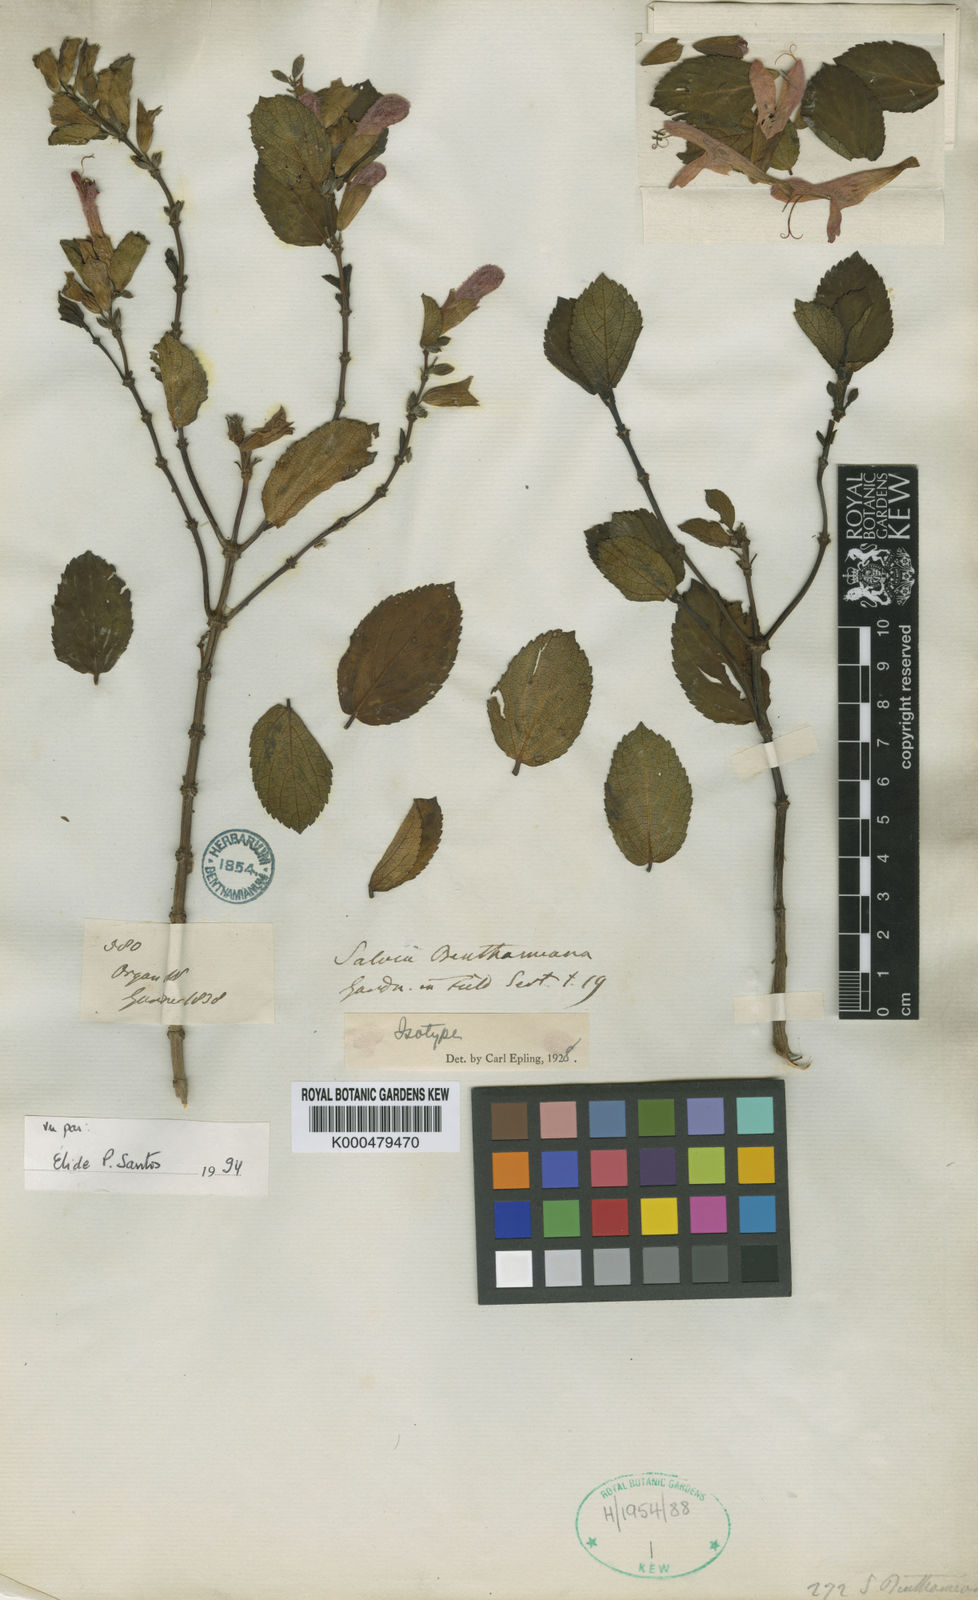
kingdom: Plantae
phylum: Tracheophyta
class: Magnoliopsida
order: Lamiales
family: Lamiaceae
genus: Salvia
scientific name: Salvia benthamiana
